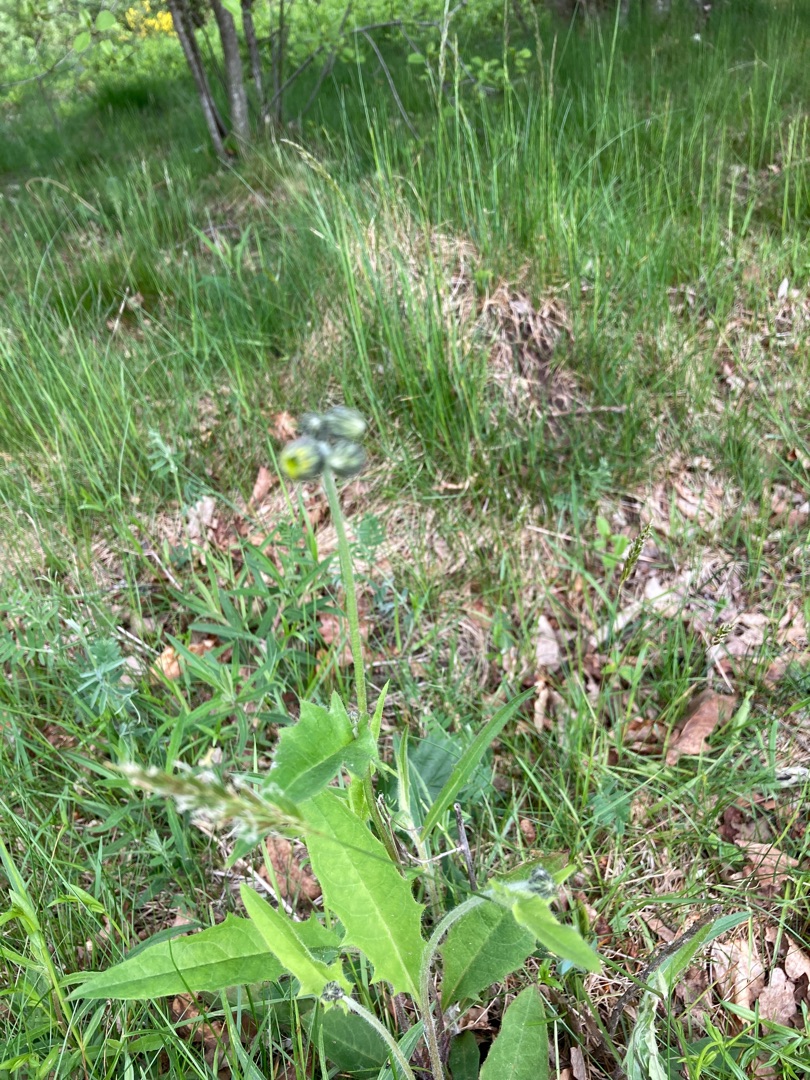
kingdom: Plantae
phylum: Tracheophyta
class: Magnoliopsida
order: Asterales
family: Asteraceae
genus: Hieracium
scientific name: Hieracium
